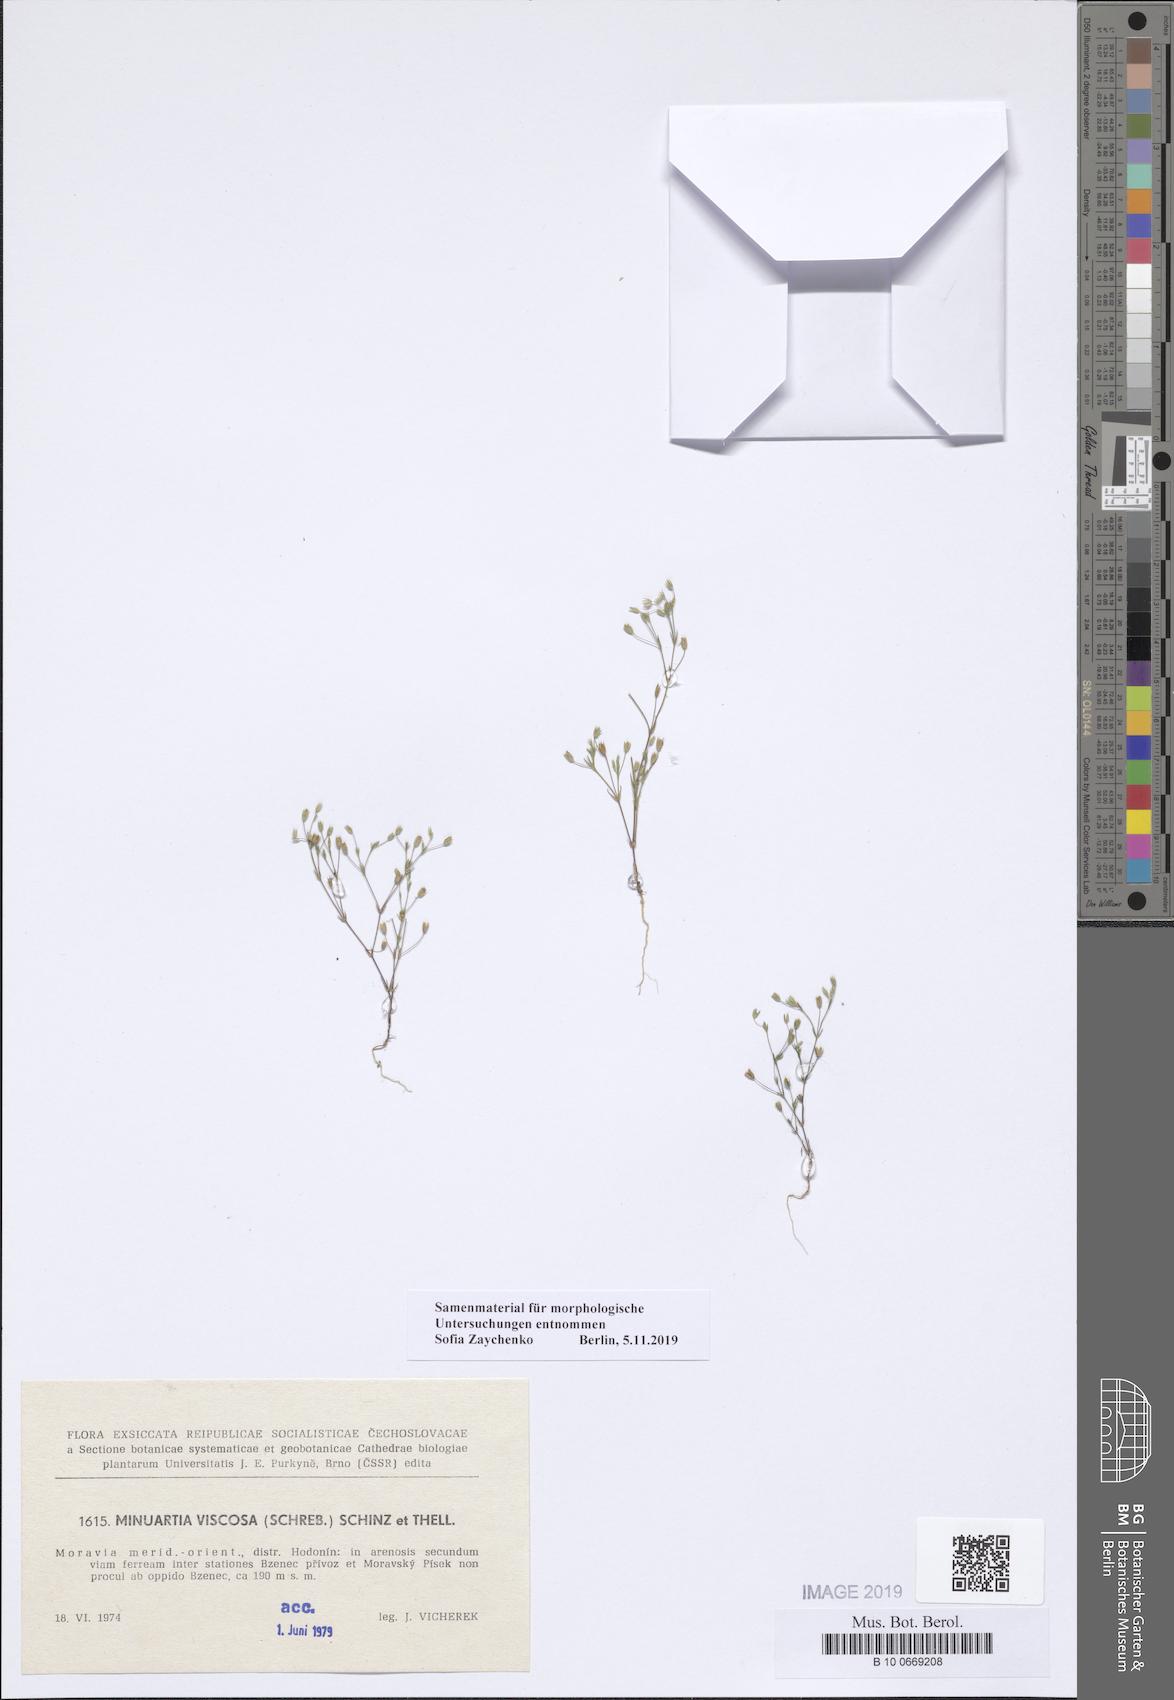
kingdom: Plantae
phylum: Tracheophyta
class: Magnoliopsida
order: Caryophyllales
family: Caryophyllaceae
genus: Sabulina
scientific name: Sabulina viscosa
